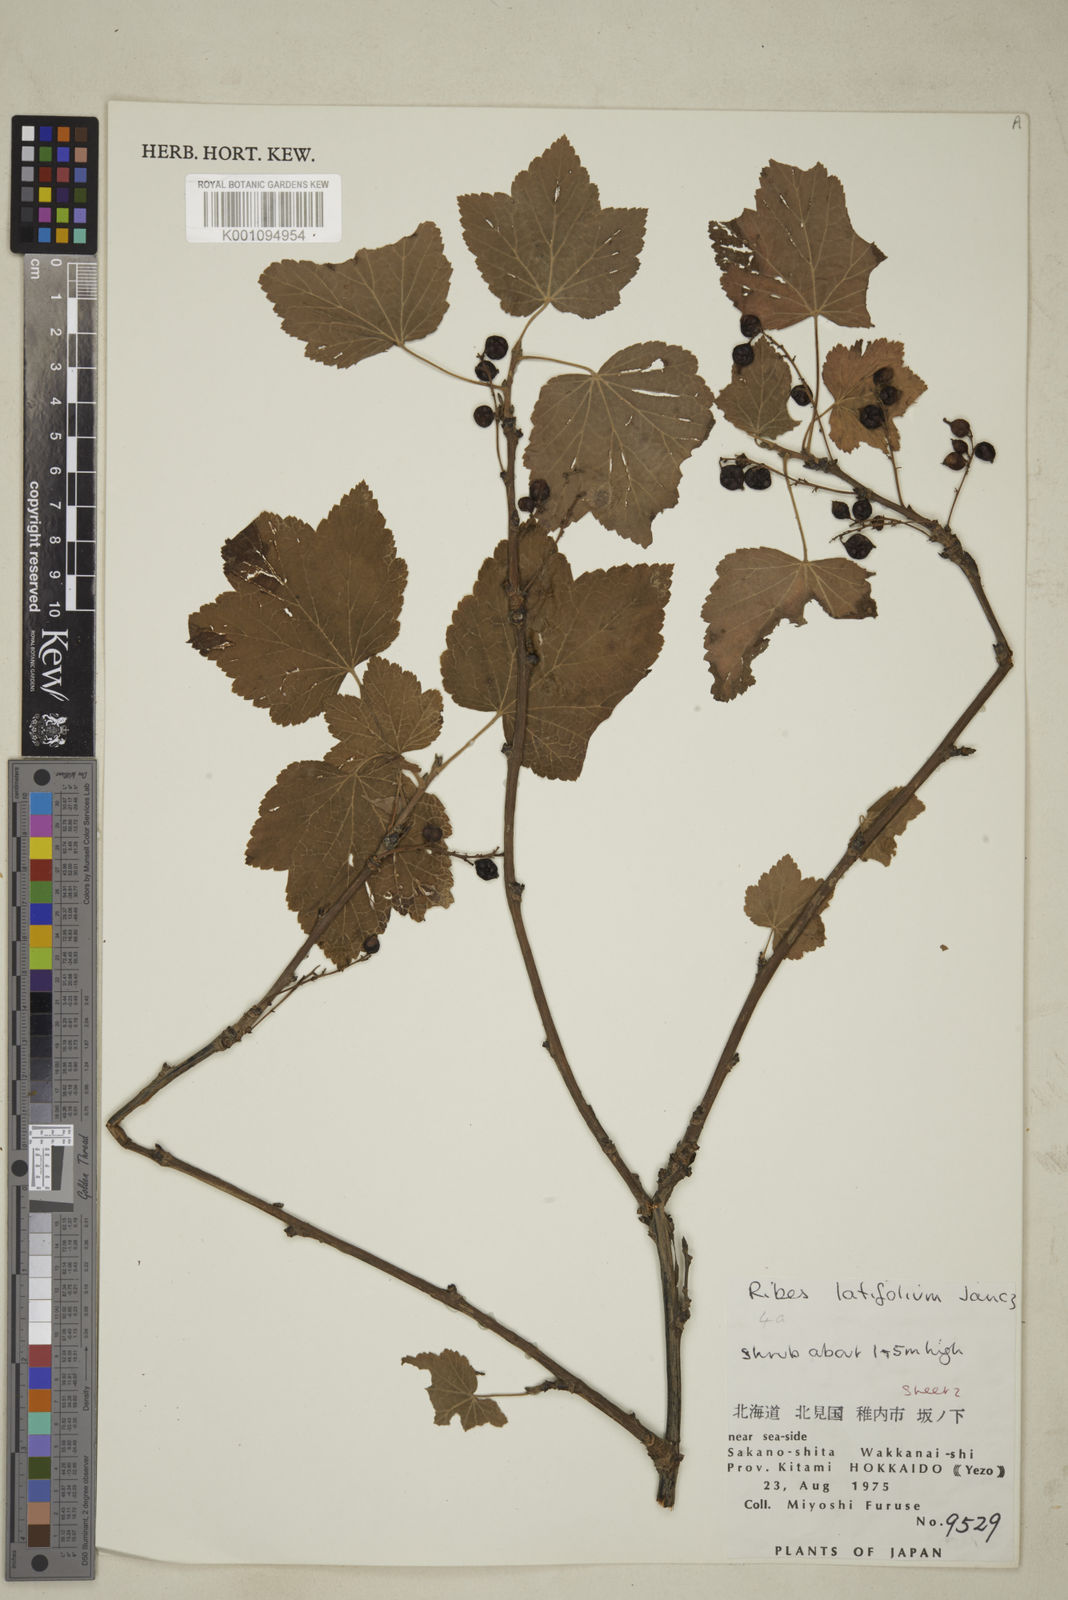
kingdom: Plantae
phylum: Tracheophyta
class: Magnoliopsida
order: Saxifragales
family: Grossulariaceae
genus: Ribes
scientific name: Ribes latifolium
